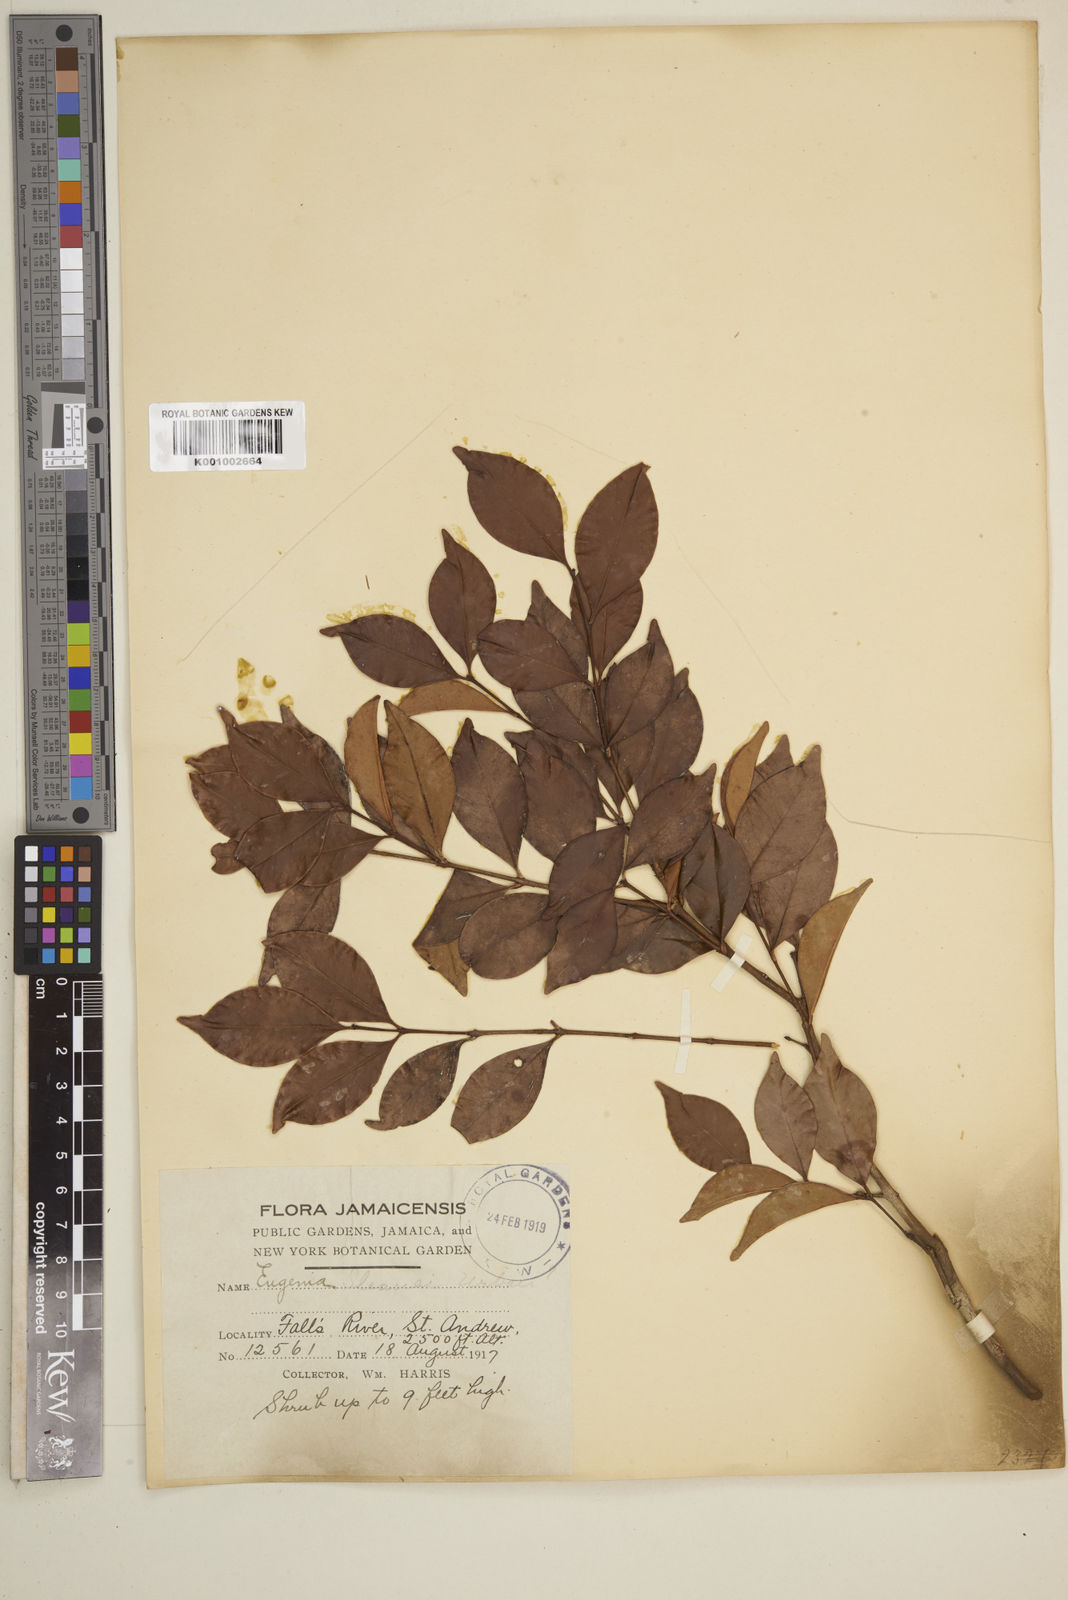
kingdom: Plantae
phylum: Tracheophyta
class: Magnoliopsida
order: Myrtales
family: Myrtaceae
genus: Eugenia
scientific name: Eugenia
